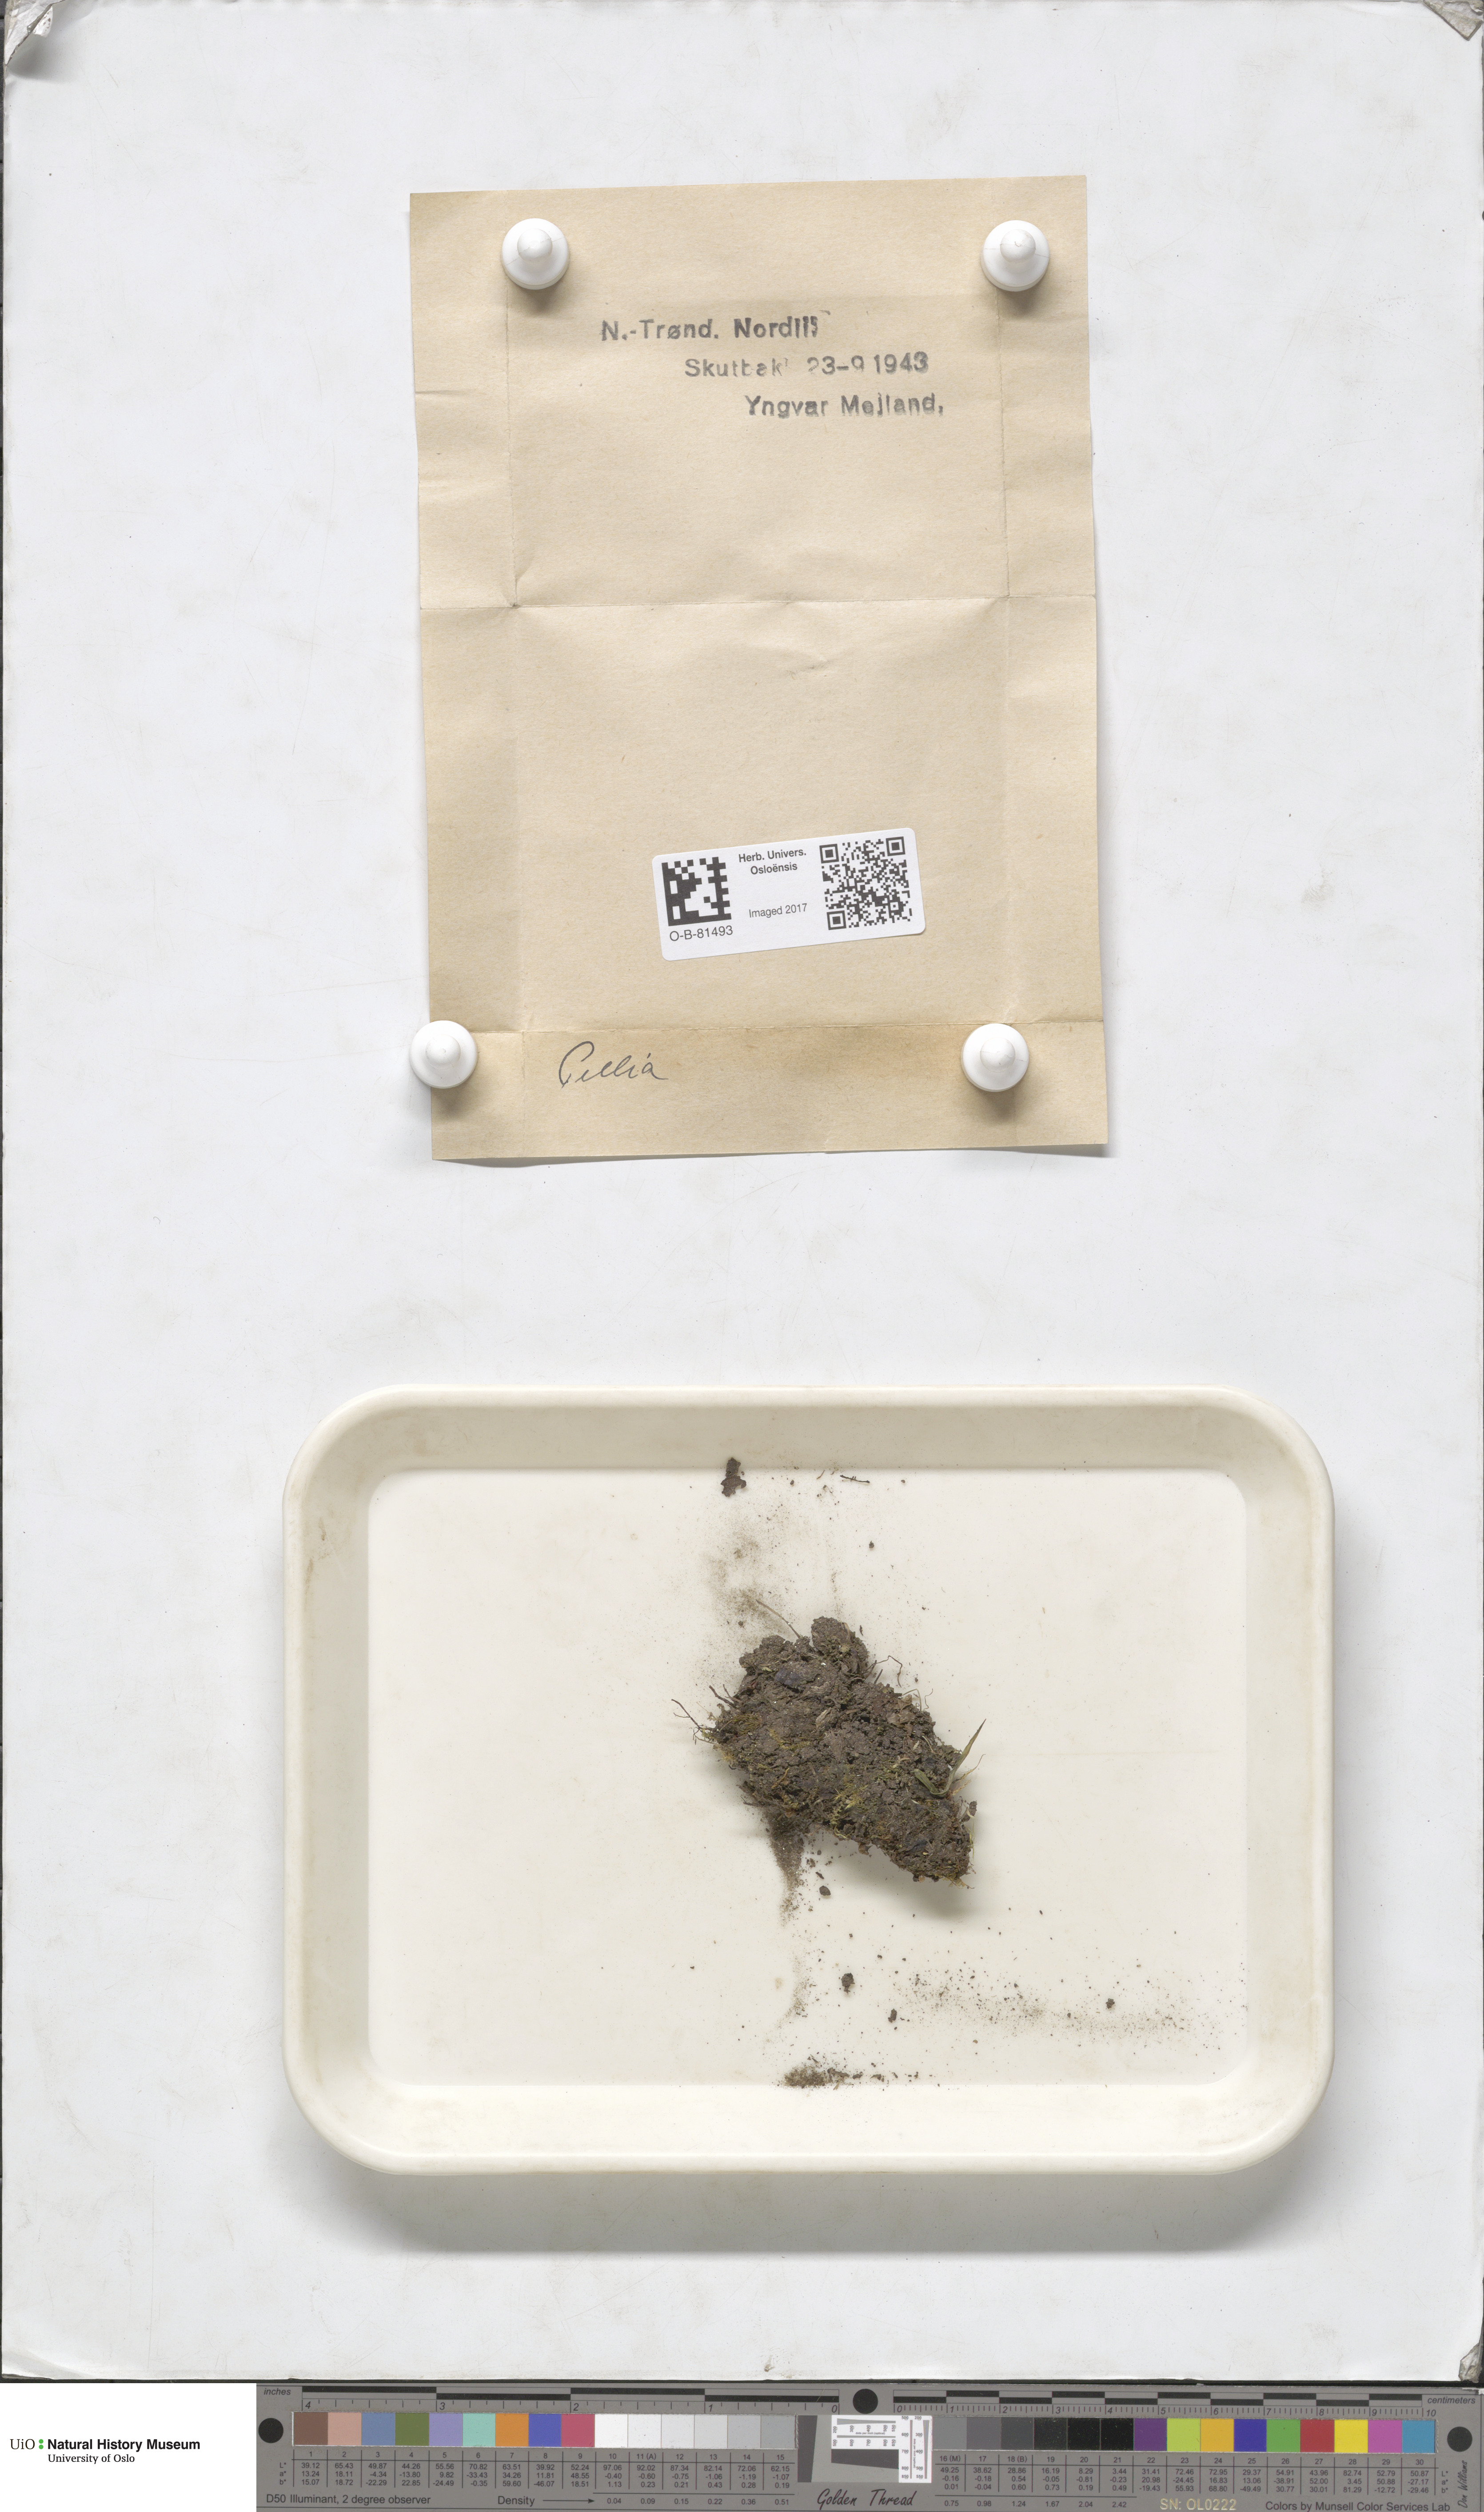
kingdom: Plantae
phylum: Marchantiophyta
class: Jungermanniopsida
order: Pelliales
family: Pelliaceae
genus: Pellia
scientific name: Pellia
